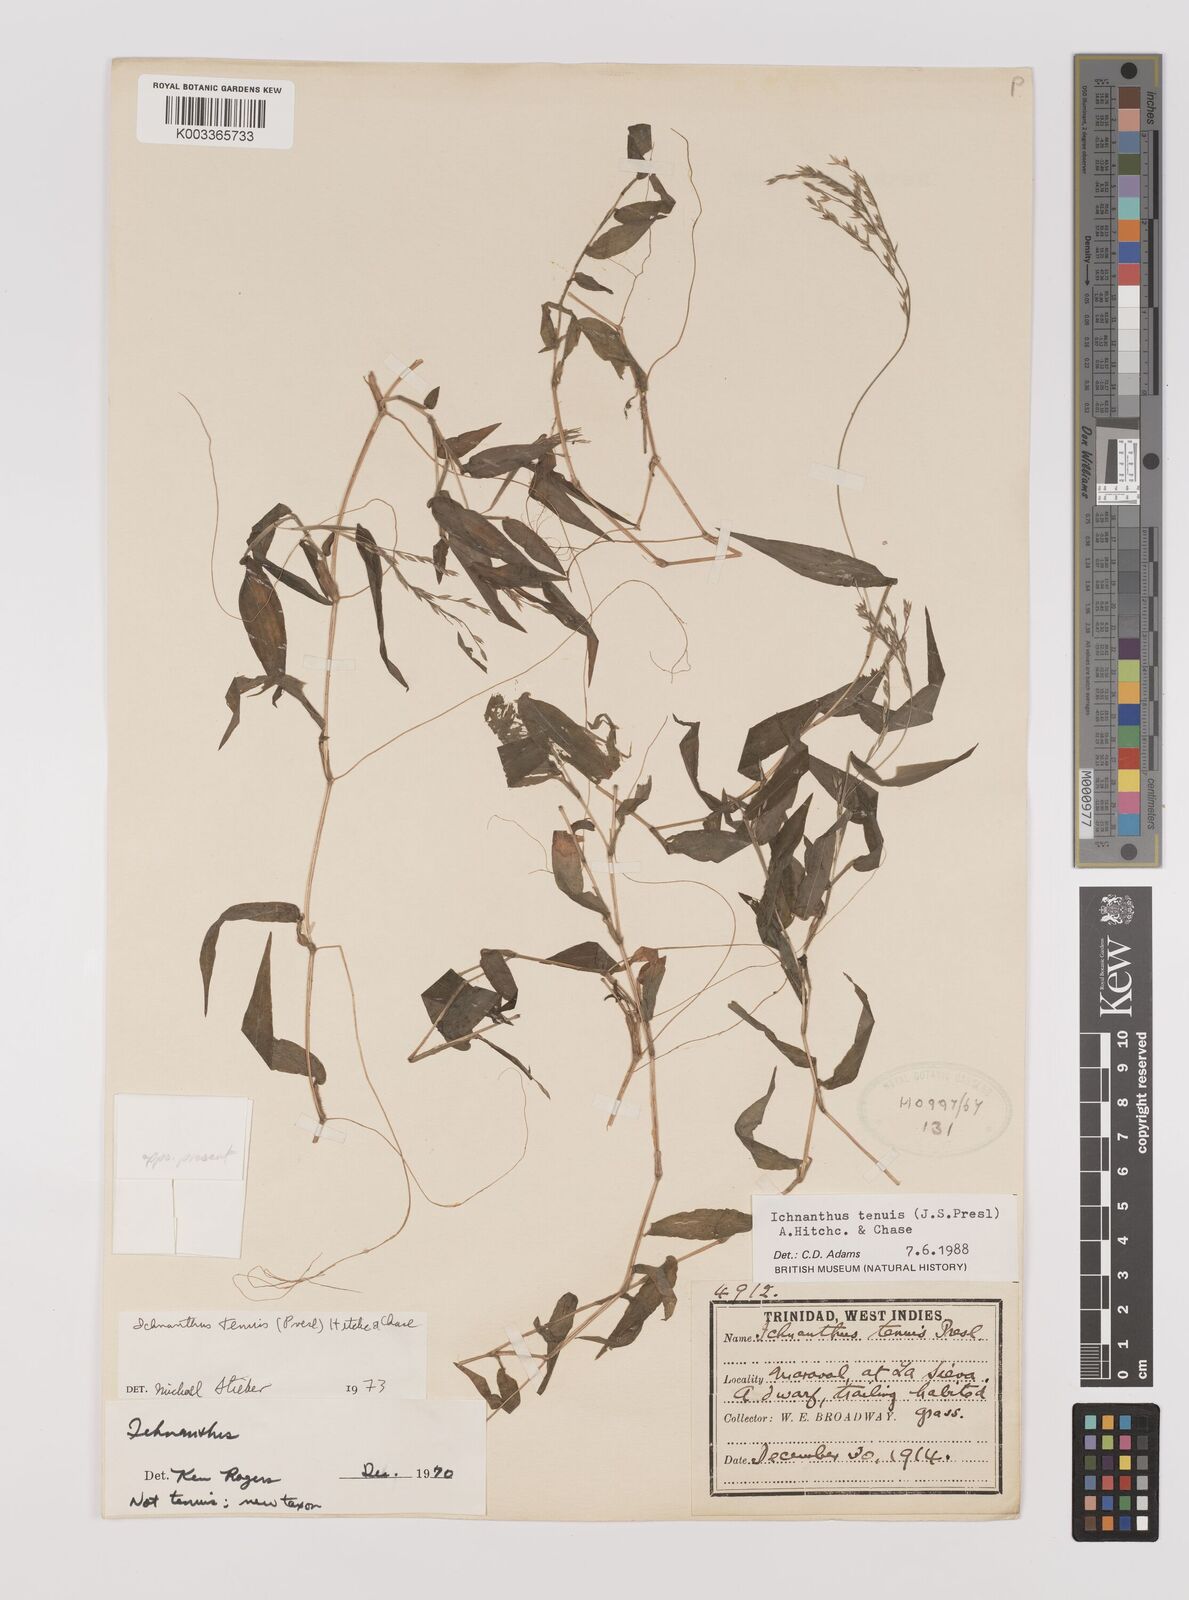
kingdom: Plantae
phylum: Tracheophyta
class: Liliopsida
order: Poales
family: Poaceae
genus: Ichnanthus
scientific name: Ichnanthus tenuis
